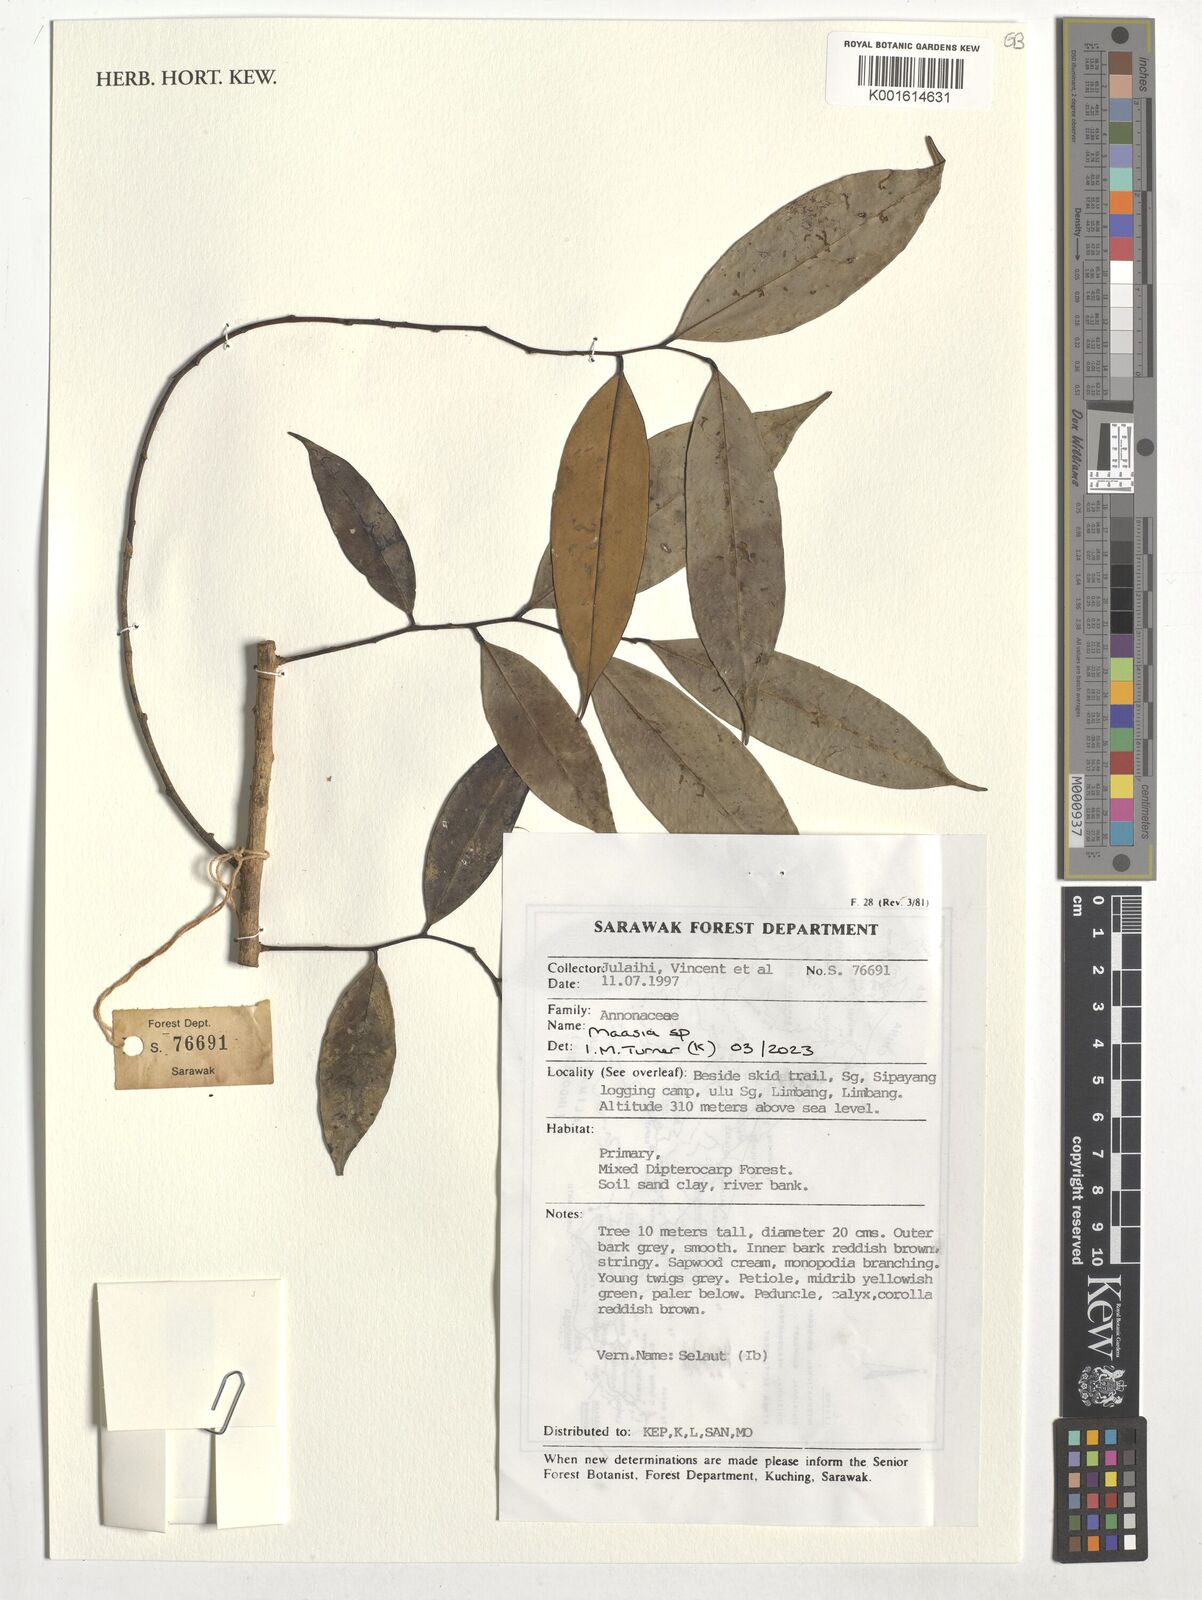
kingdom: Plantae
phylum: Tracheophyta
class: Magnoliopsida
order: Magnoliales
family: Annonaceae
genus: Maasia
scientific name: Maasia
